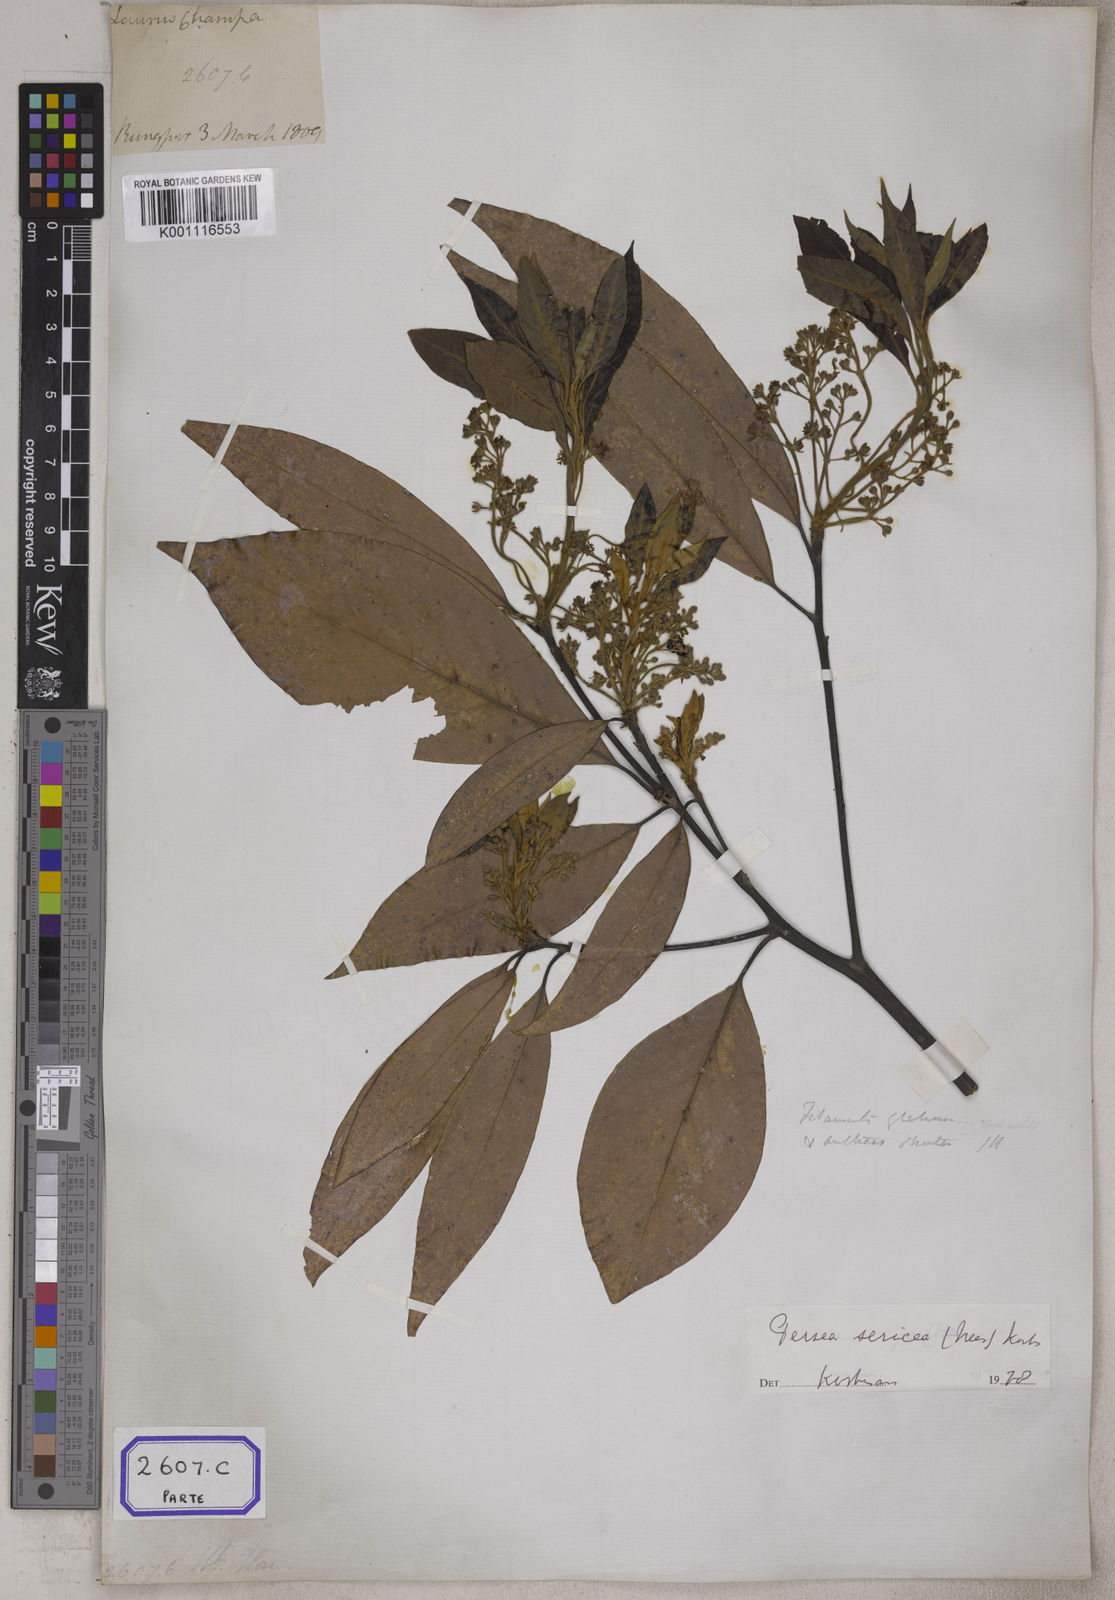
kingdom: Plantae
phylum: Tracheophyta
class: Magnoliopsida
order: Laurales
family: Lauraceae
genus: Machilus
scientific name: Machilus odoratissimus
